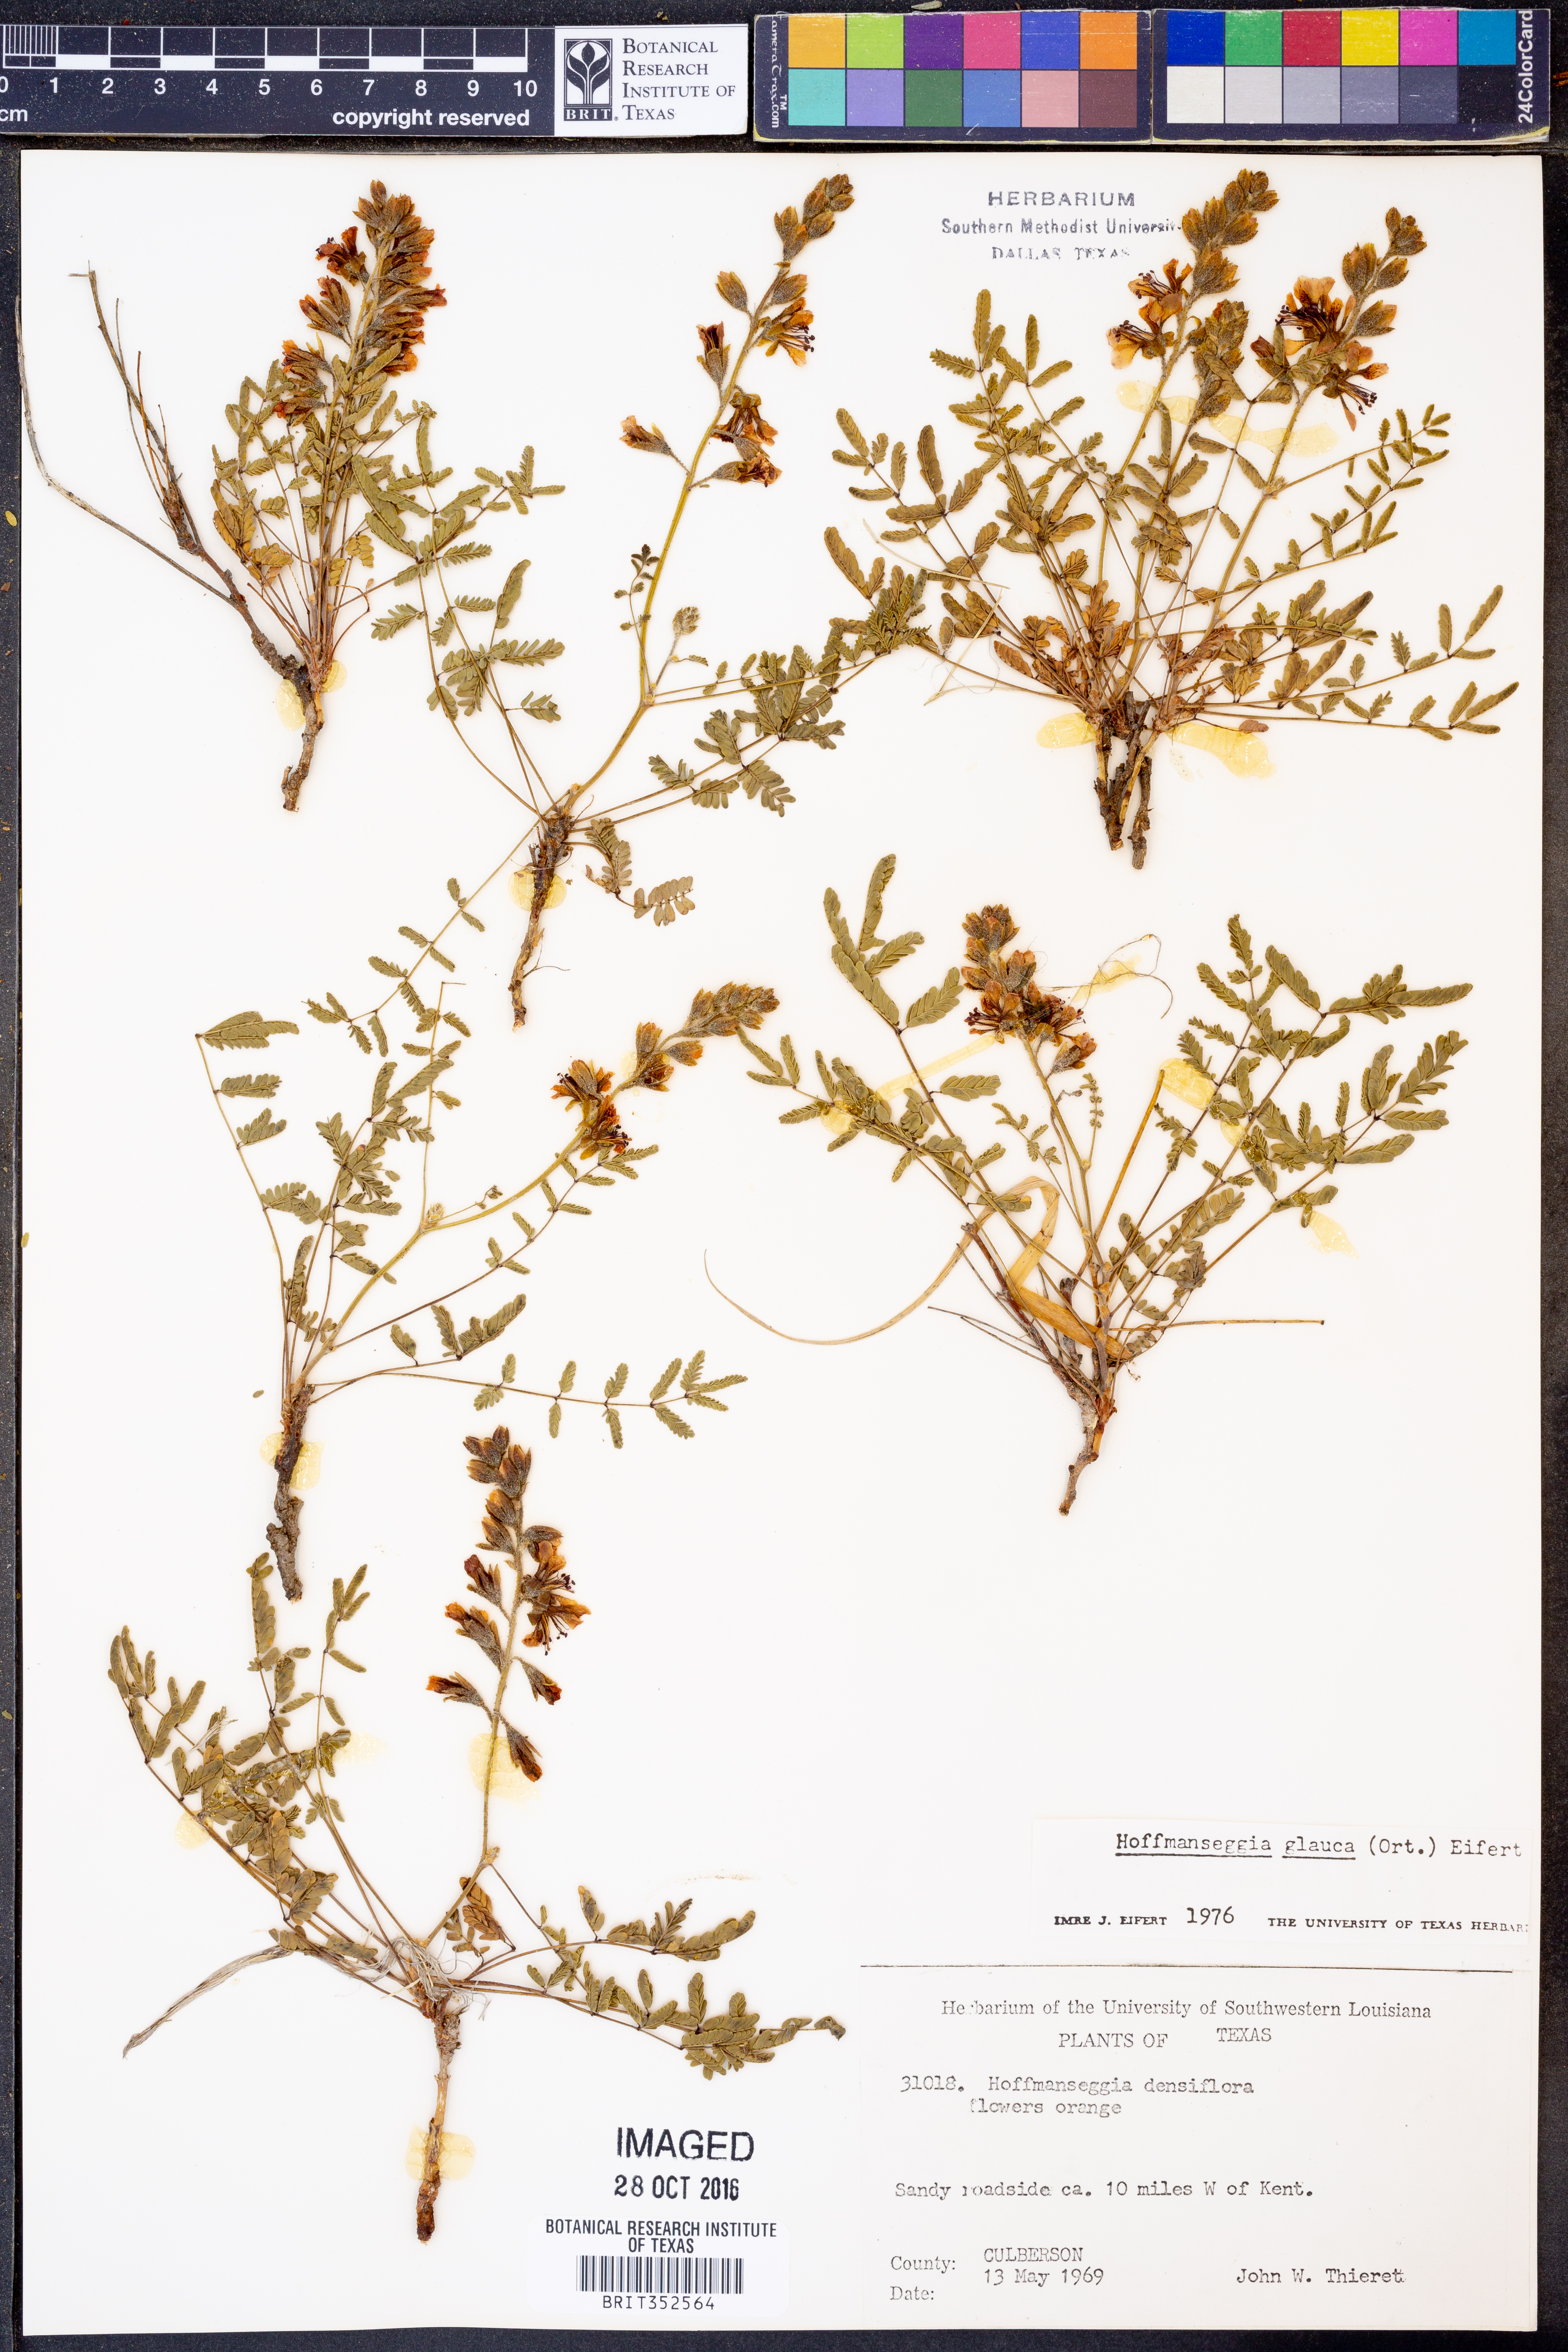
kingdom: Plantae
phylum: Tracheophyta
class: Magnoliopsida
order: Fabales
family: Fabaceae
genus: Hoffmannseggia
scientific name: Hoffmannseggia glauca
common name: Pignut
